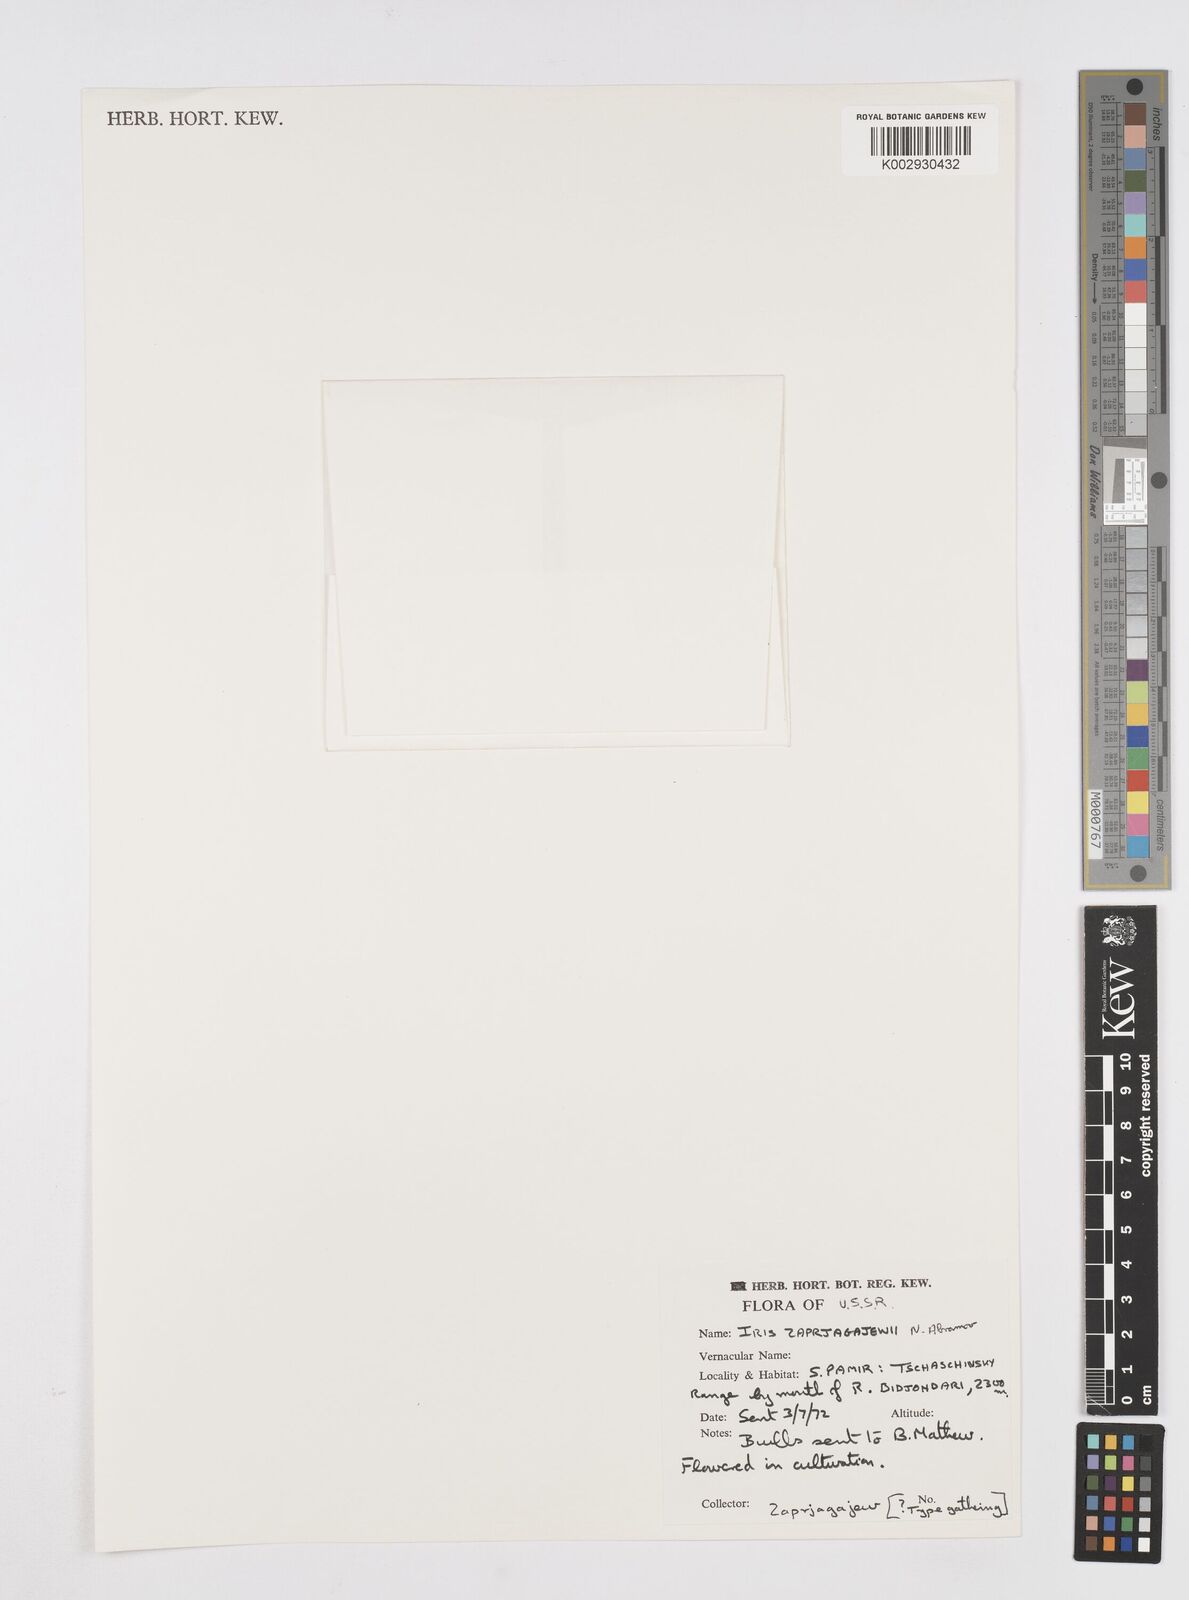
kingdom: Plantae
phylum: Tracheophyta
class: Liliopsida
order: Asparagales
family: Iridaceae
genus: Iris
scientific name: Iris zaprjagajevii
